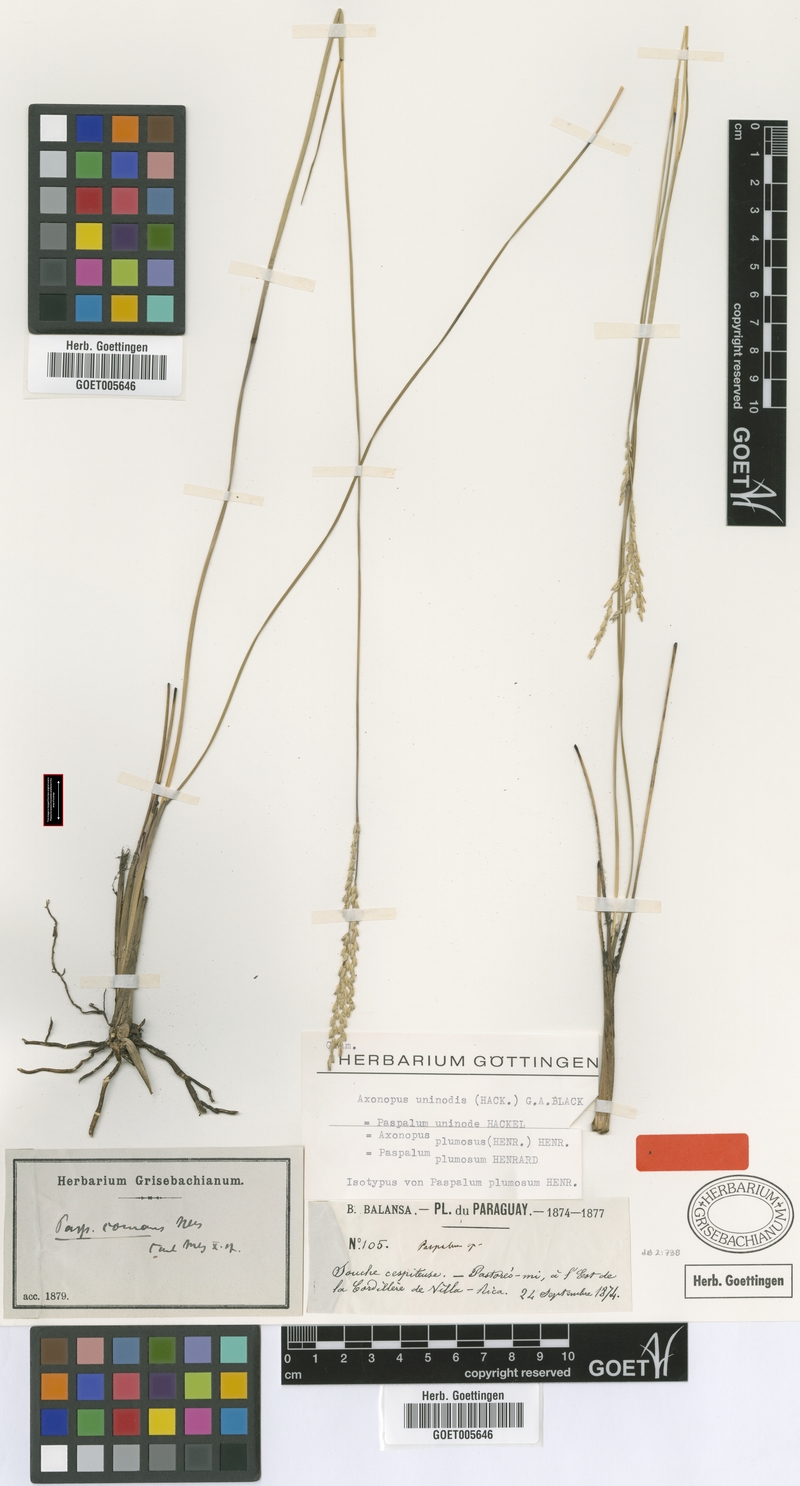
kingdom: Plantae
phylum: Tracheophyta
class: Liliopsida
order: Poales
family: Poaceae
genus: Axonopus
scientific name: Axonopus comans
